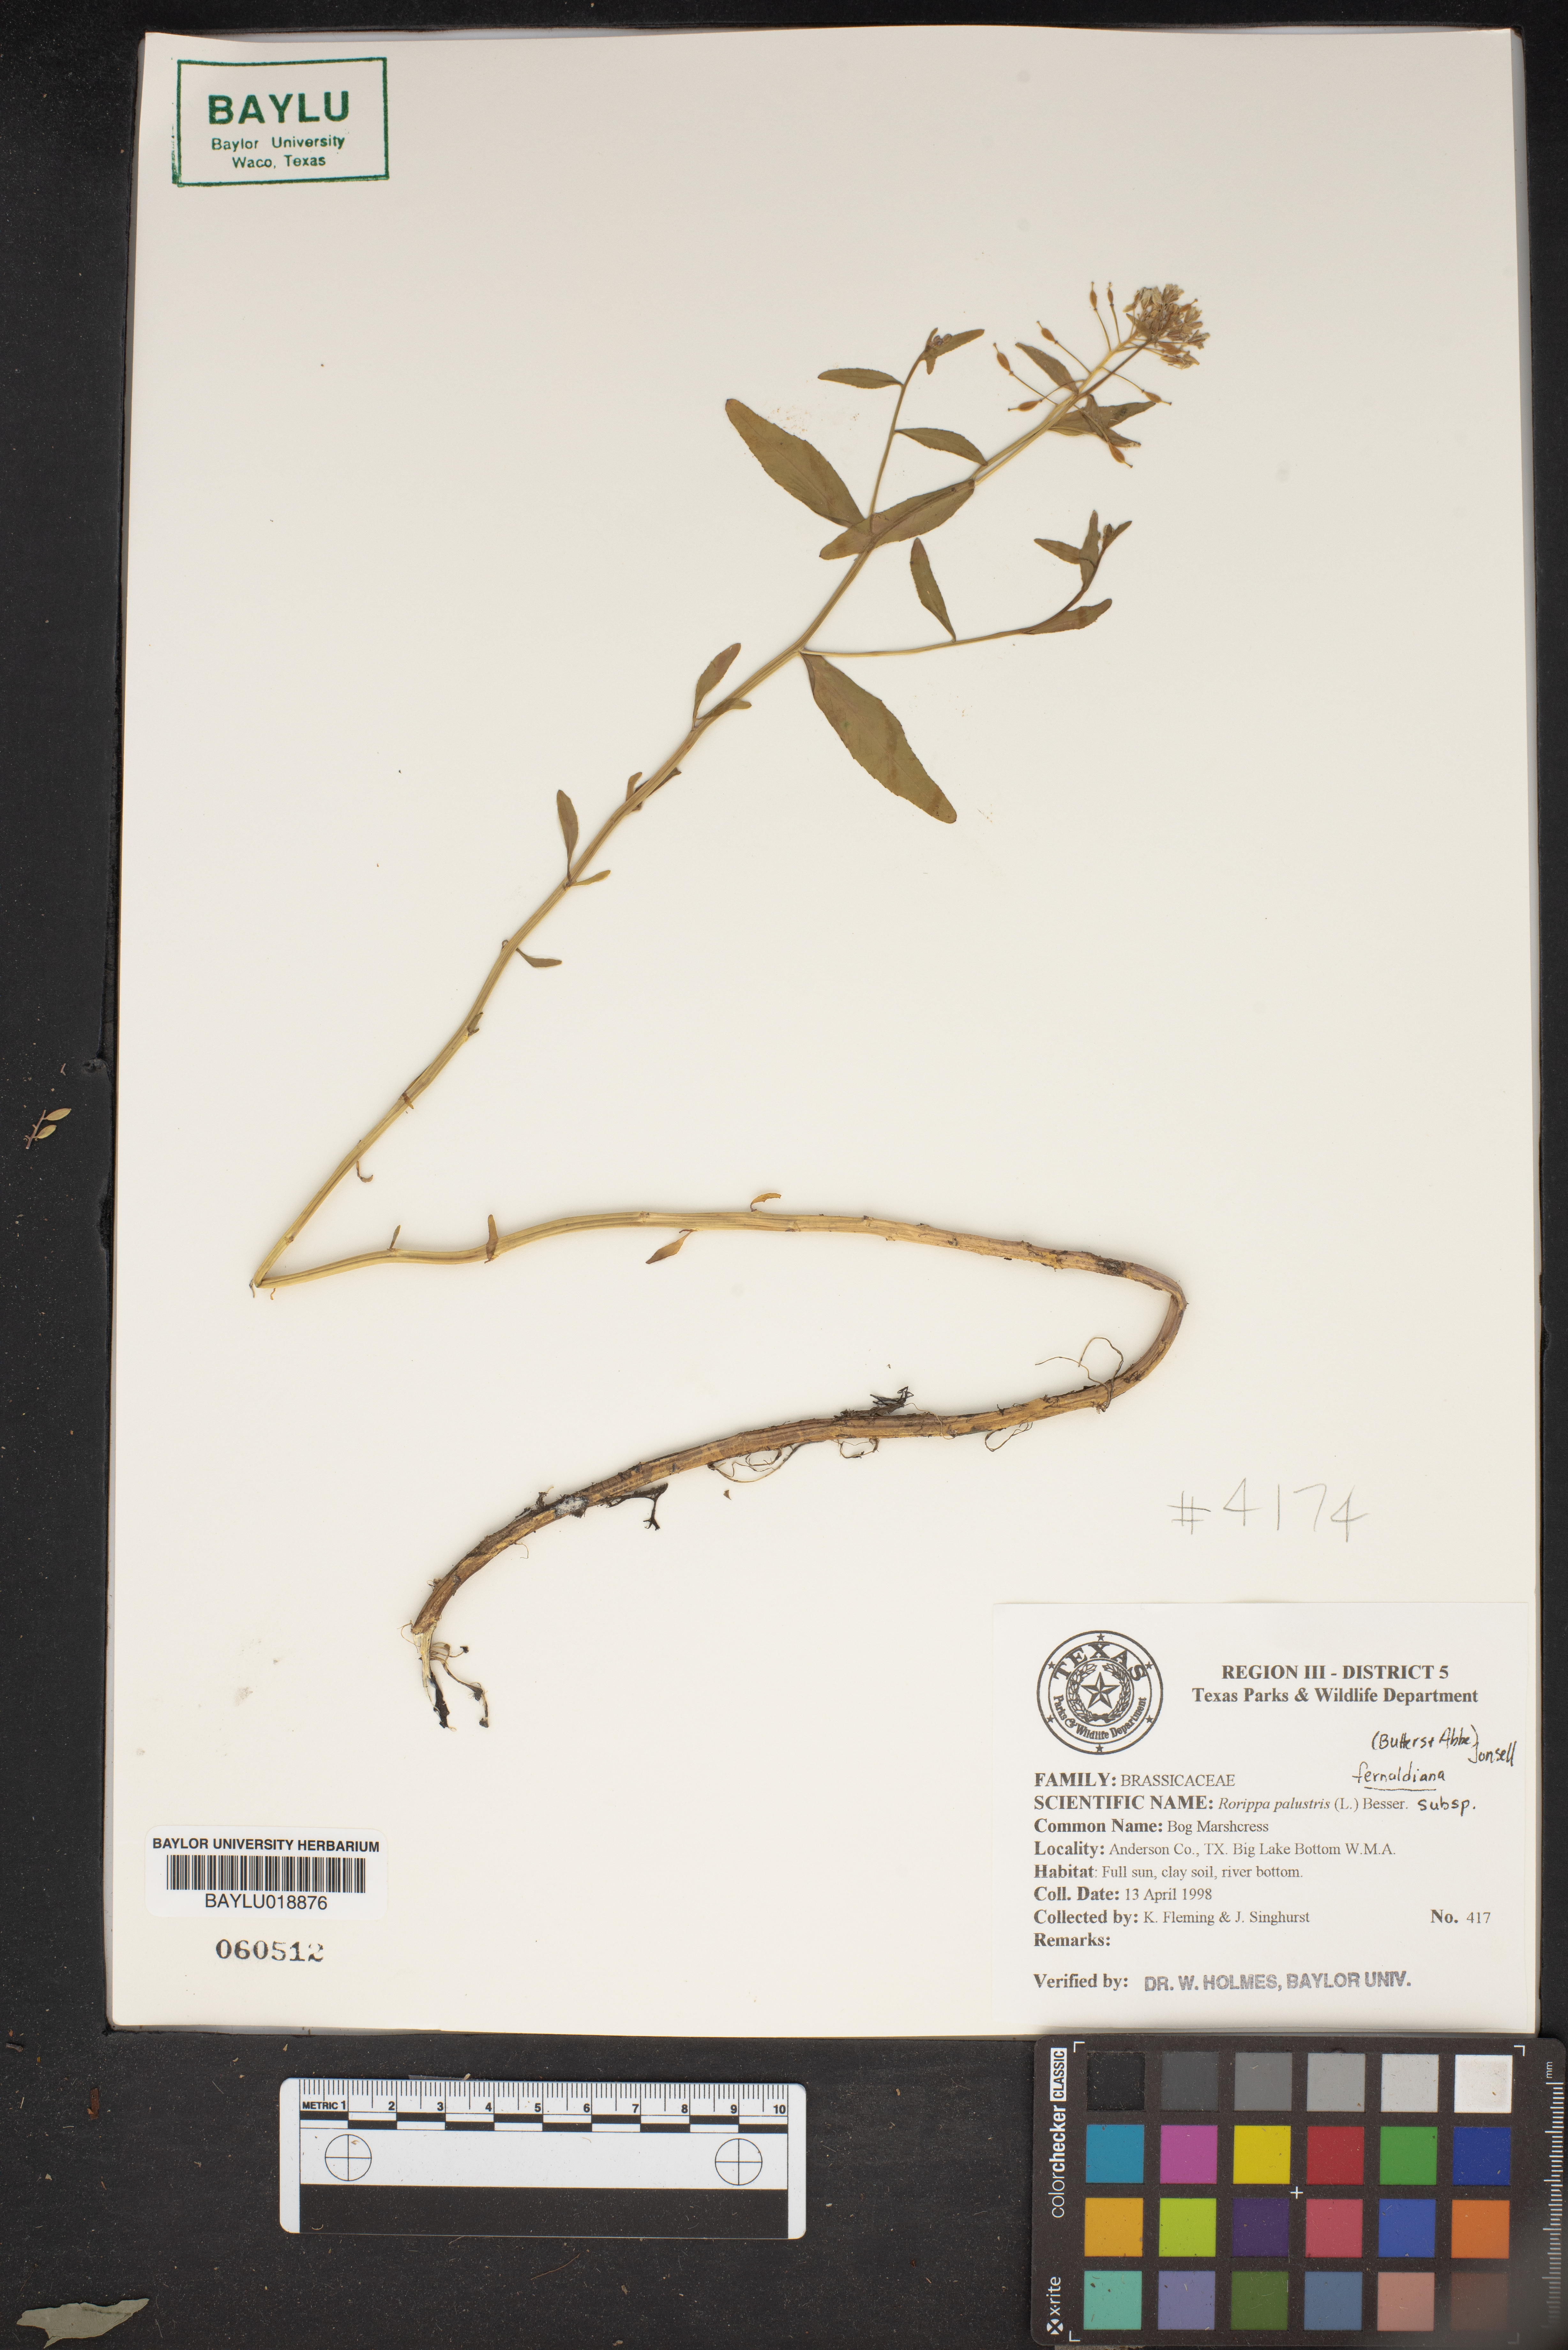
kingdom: Plantae
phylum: Tracheophyta
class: Magnoliopsida
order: Brassicales
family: Brassicaceae
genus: Rorippa
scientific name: Rorippa palustris
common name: Marsh yellow-cress
